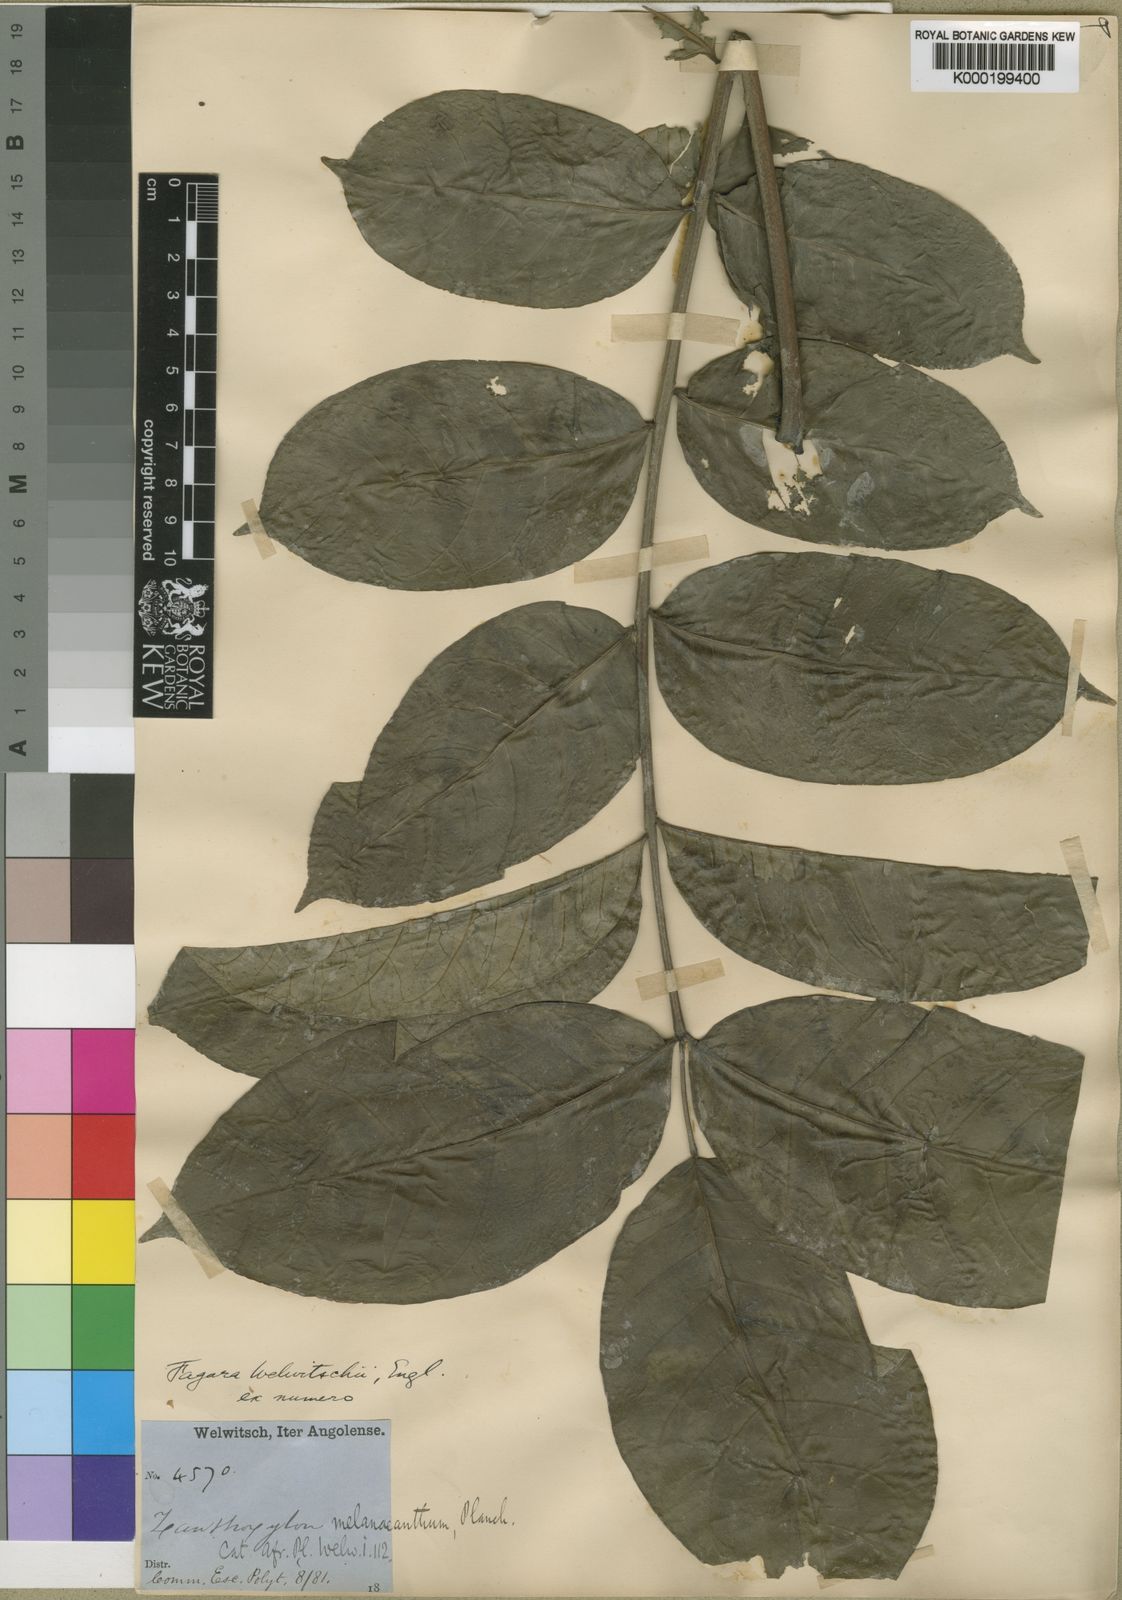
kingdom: Plantae
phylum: Tracheophyta
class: Magnoliopsida
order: Sapindales
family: Rutaceae
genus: Vepris
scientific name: Vepris grandifolia
